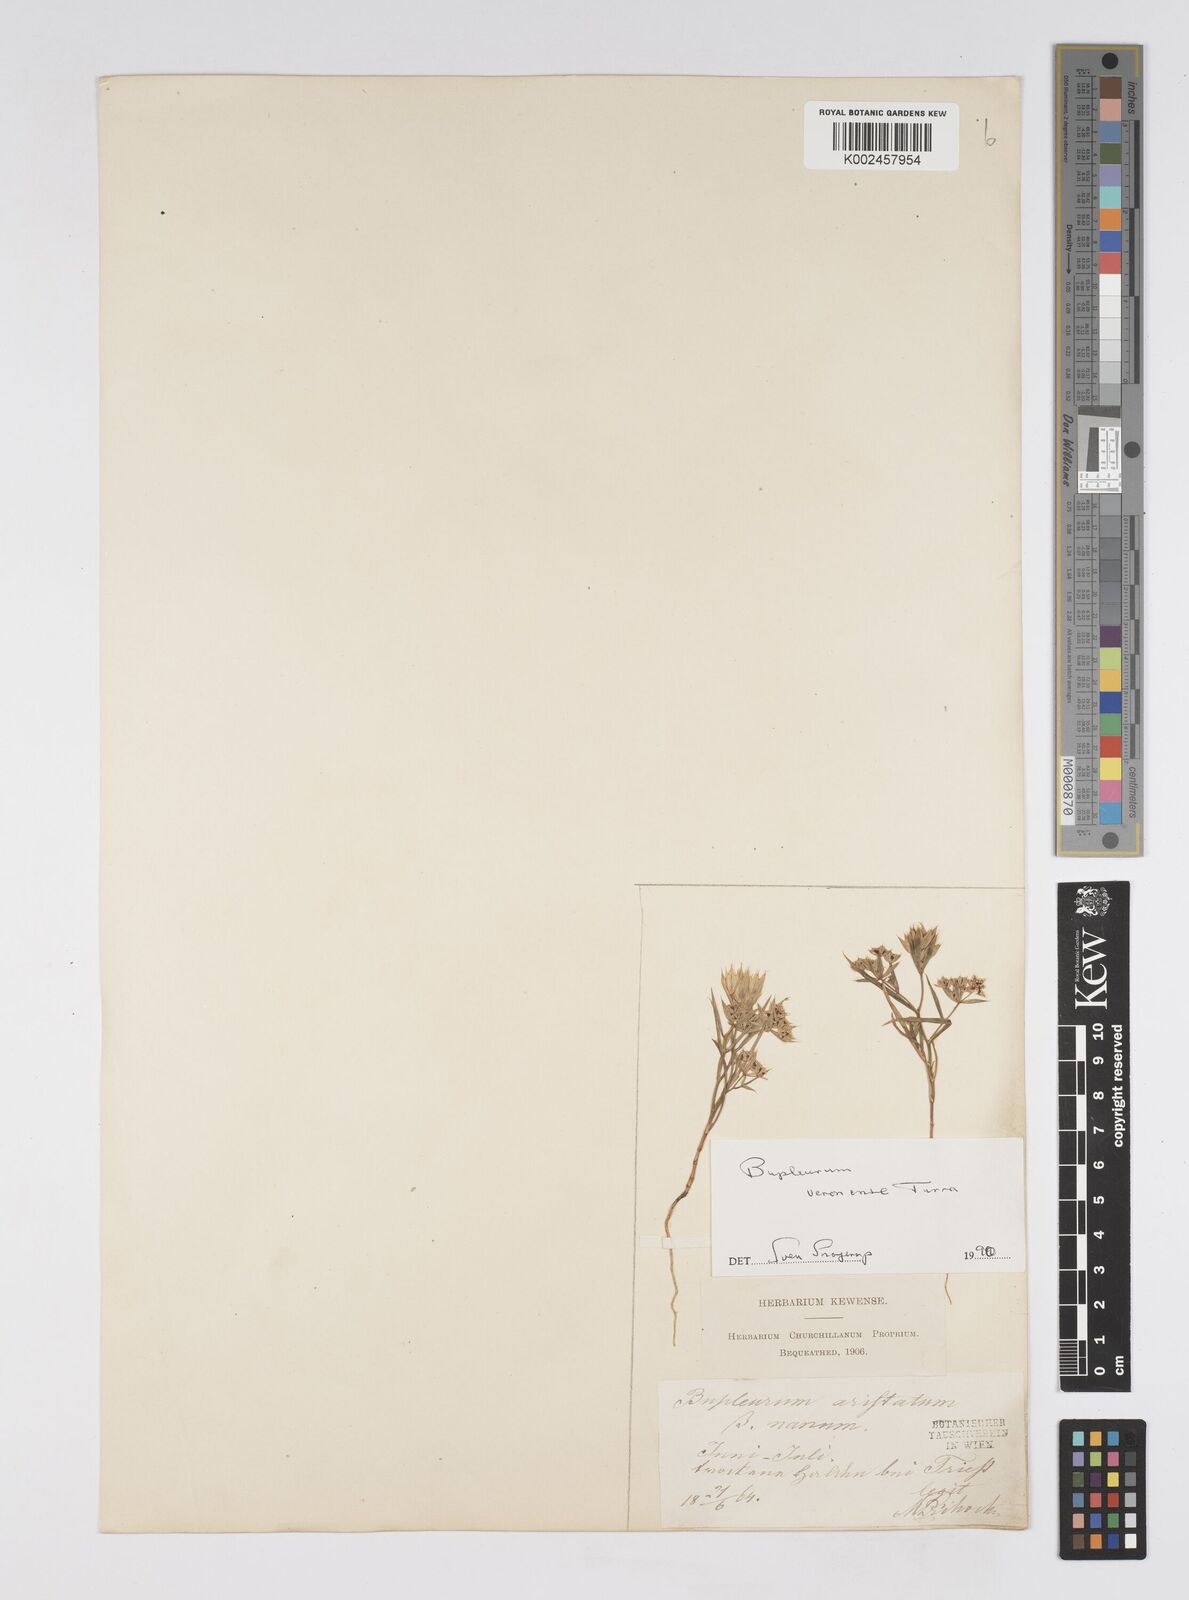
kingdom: Plantae
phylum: Tracheophyta
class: Magnoliopsida
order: Apiales
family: Apiaceae
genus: Bupleurum
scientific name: Bupleurum glumaceum
